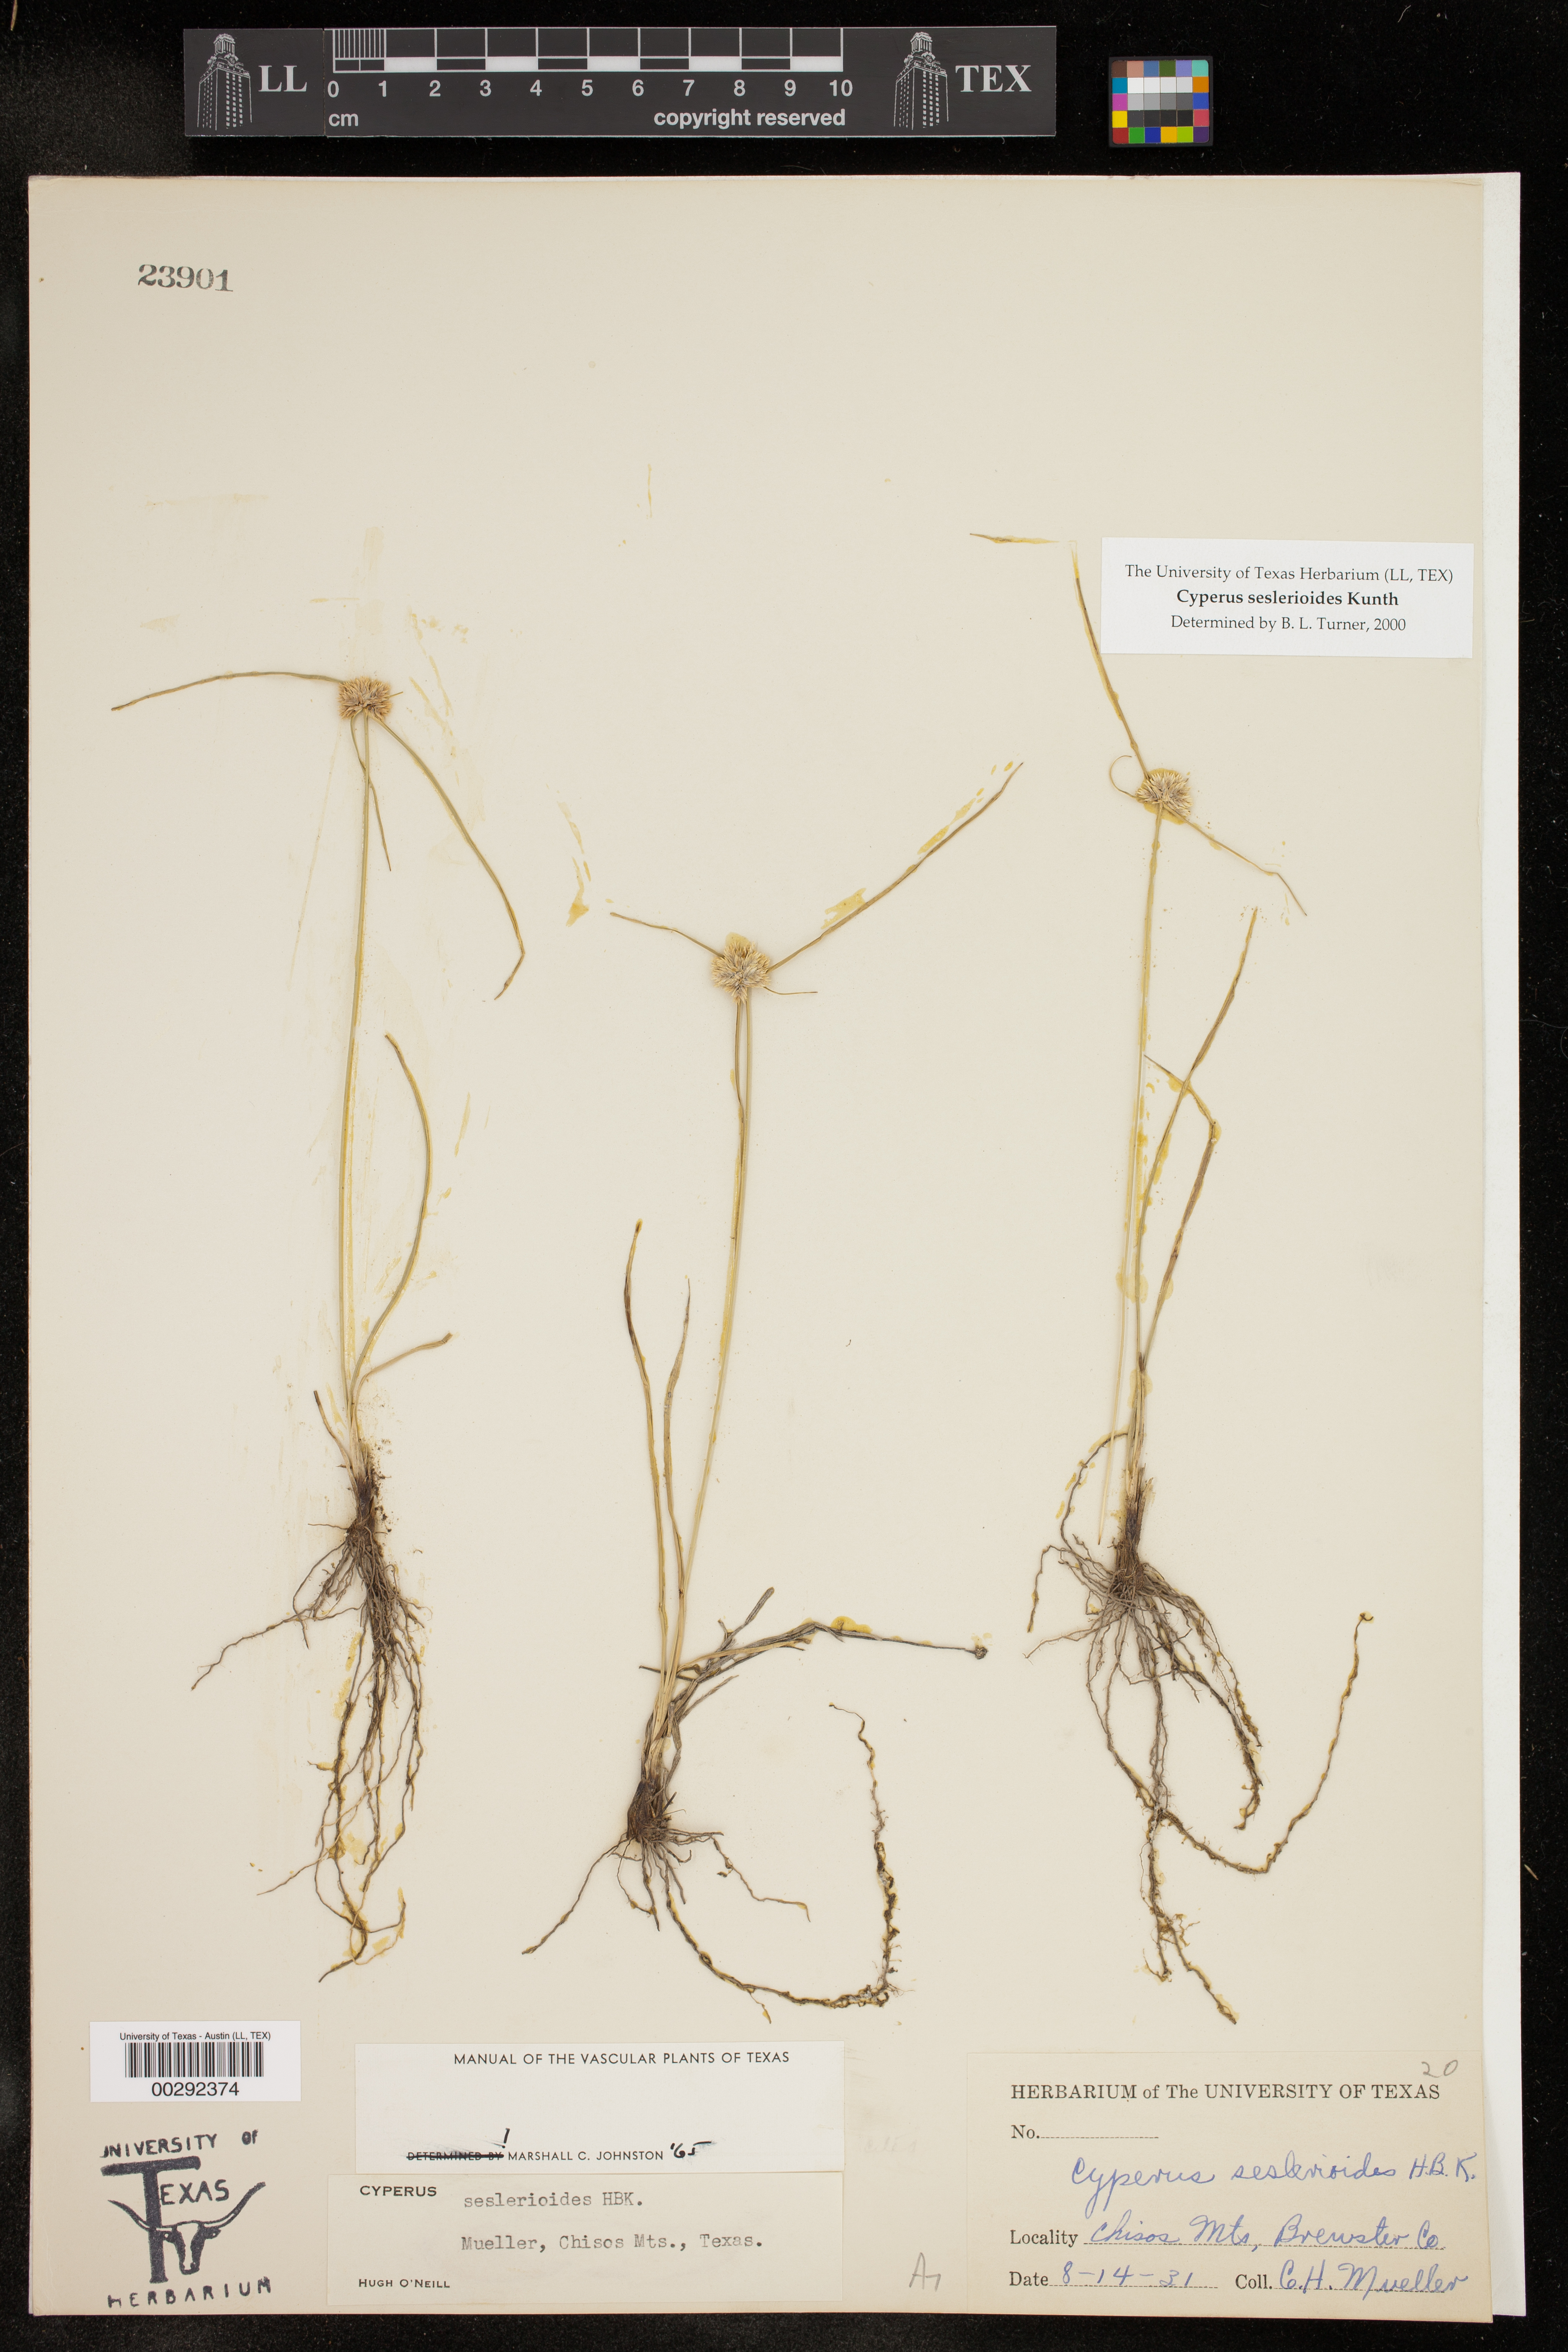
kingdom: Plantae
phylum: Tracheophyta
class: Liliopsida
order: Poales
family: Cyperaceae
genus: Cyperus
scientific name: Cyperus seslerioides
